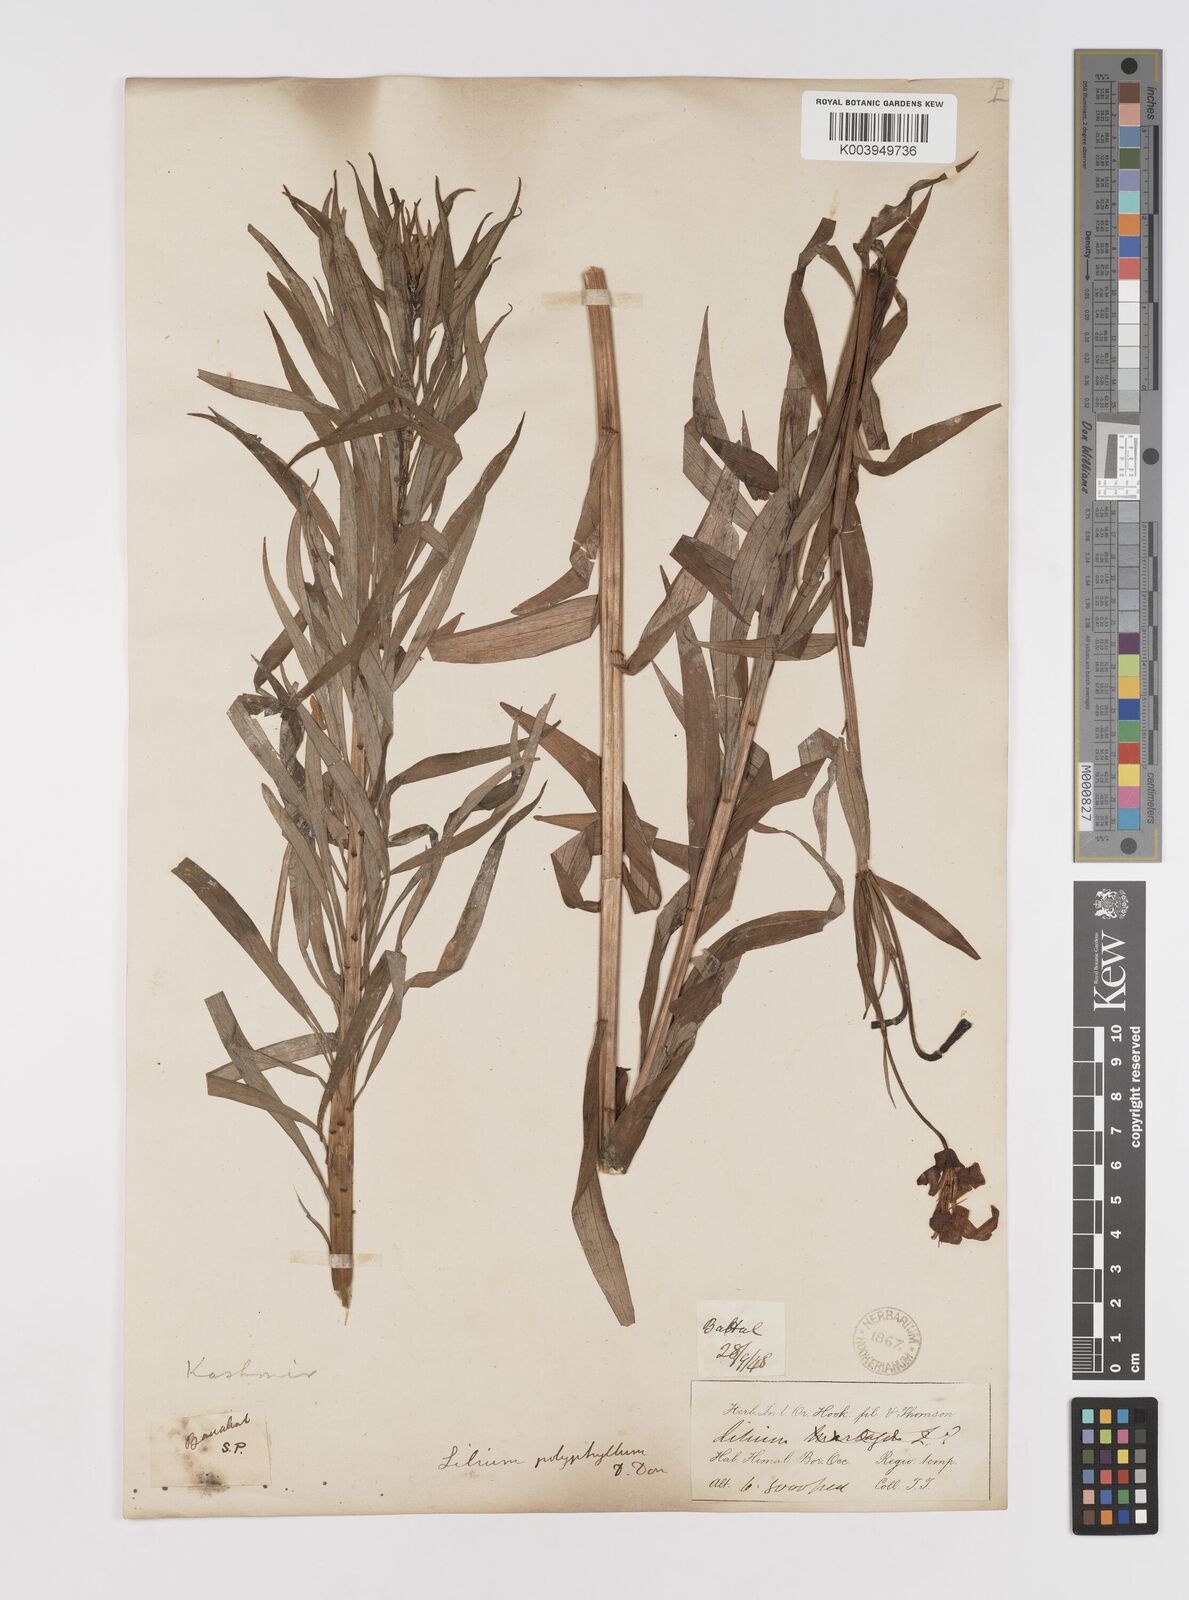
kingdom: Plantae
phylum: Tracheophyta
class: Liliopsida
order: Liliales
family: Liliaceae
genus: Lilium
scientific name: Lilium polyphyllum
